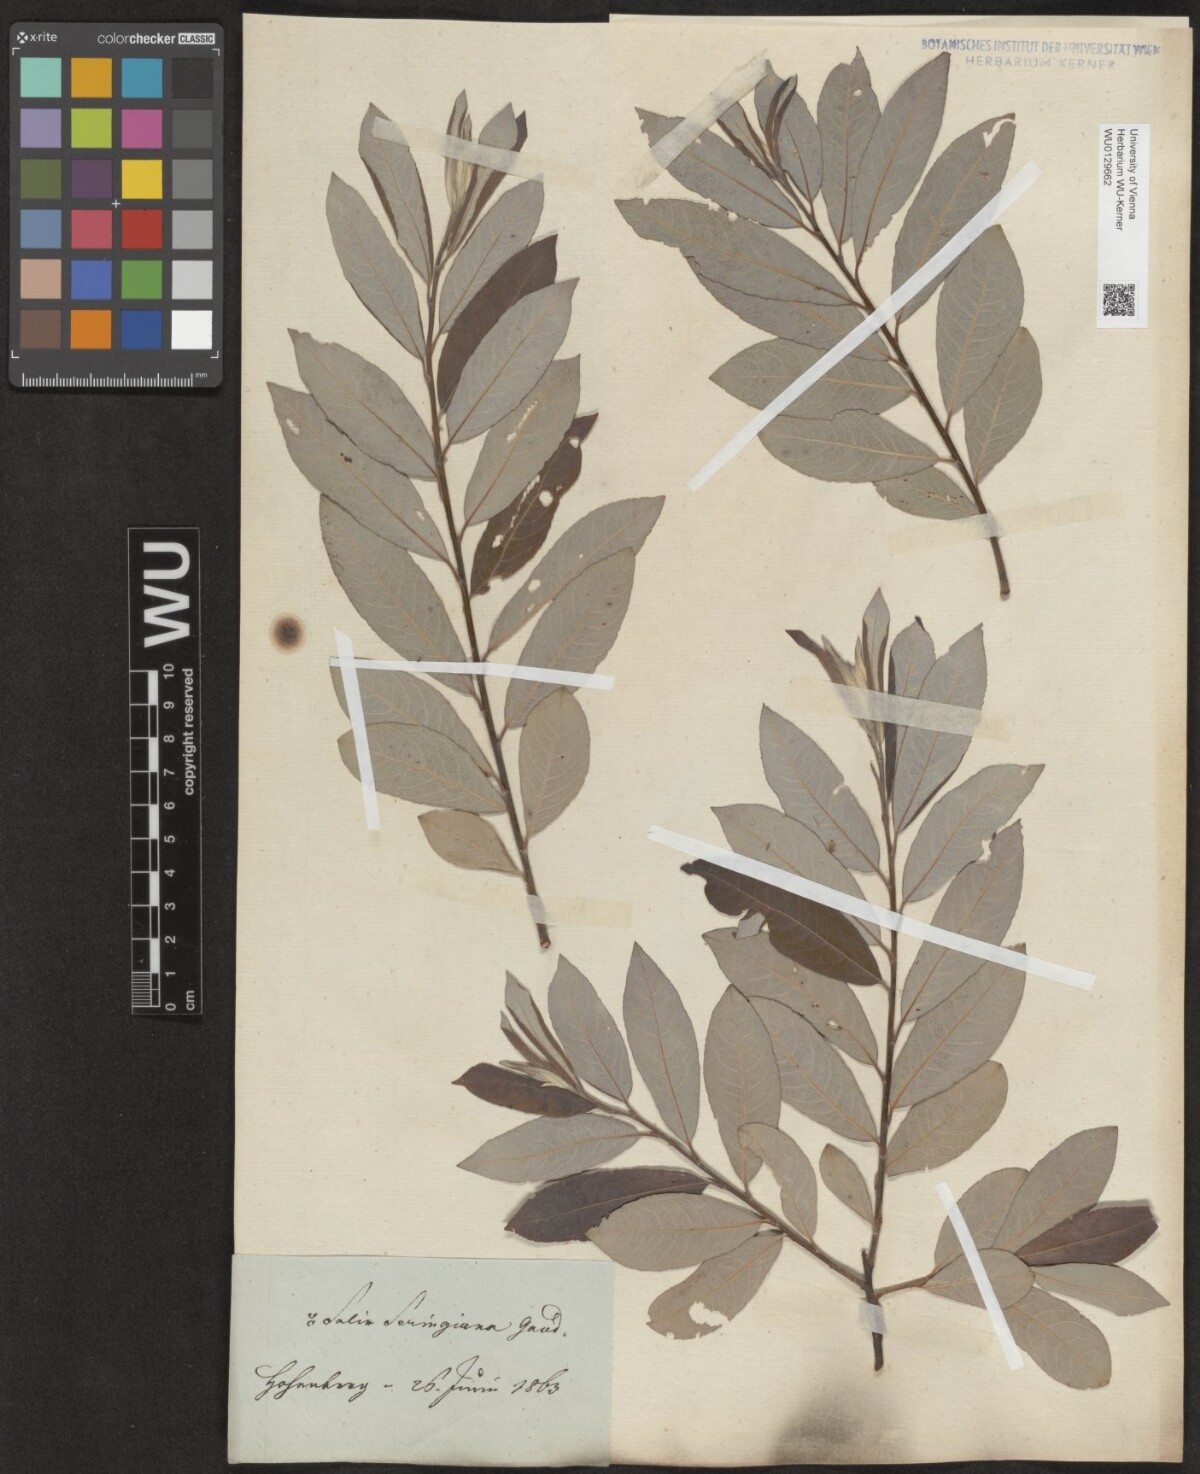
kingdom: Plantae
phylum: Tracheophyta
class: Magnoliopsida
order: Malpighiales
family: Salicaceae
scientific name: Salicaceae
